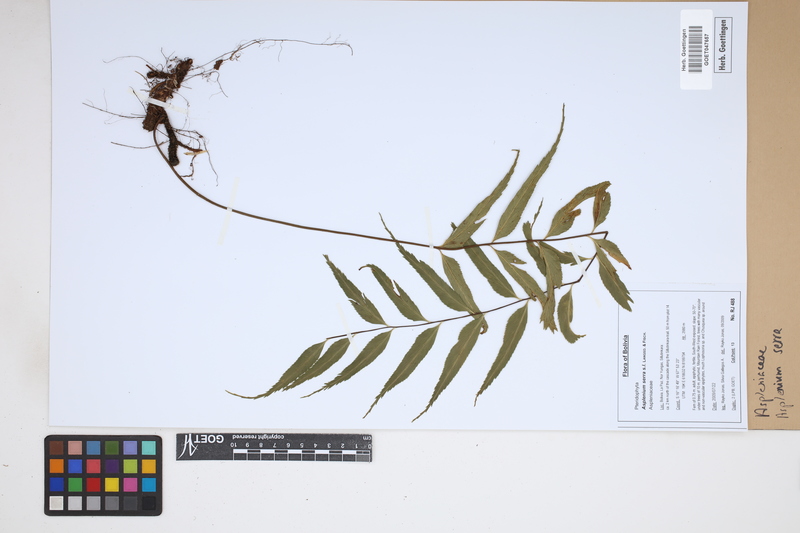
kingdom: Plantae
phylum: Tracheophyta
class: Polypodiopsida
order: Polypodiales
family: Aspleniaceae
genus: Asplenium
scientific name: Asplenium serra
